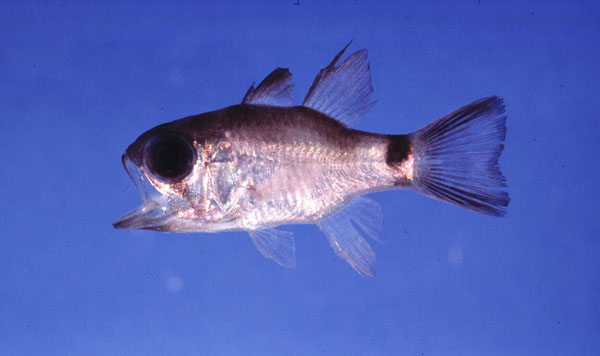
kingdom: Animalia
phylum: Chordata
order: Perciformes
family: Apogonidae
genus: Nectamia
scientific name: Nectamia savayensis
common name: Samoan cardinalfish
